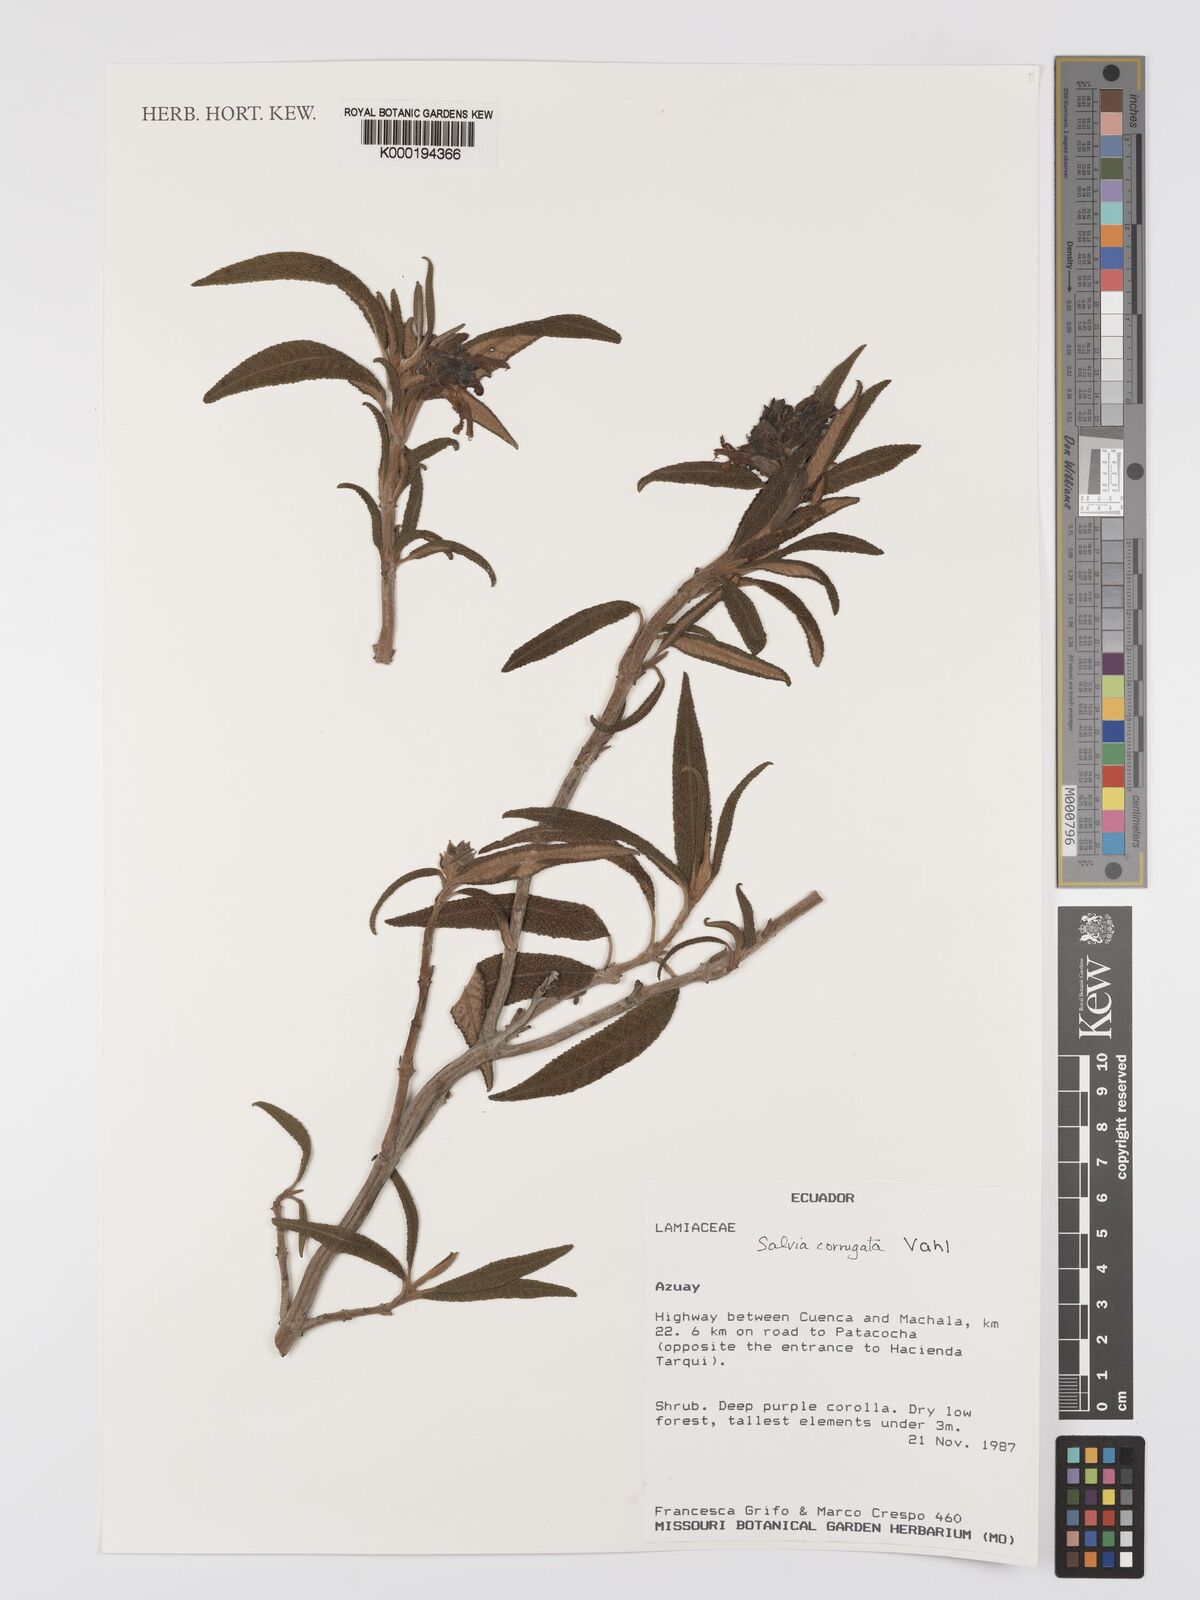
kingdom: Plantae
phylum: Tracheophyta
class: Magnoliopsida
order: Lamiales
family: Lamiaceae
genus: Salvia
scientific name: Salvia corrugata
